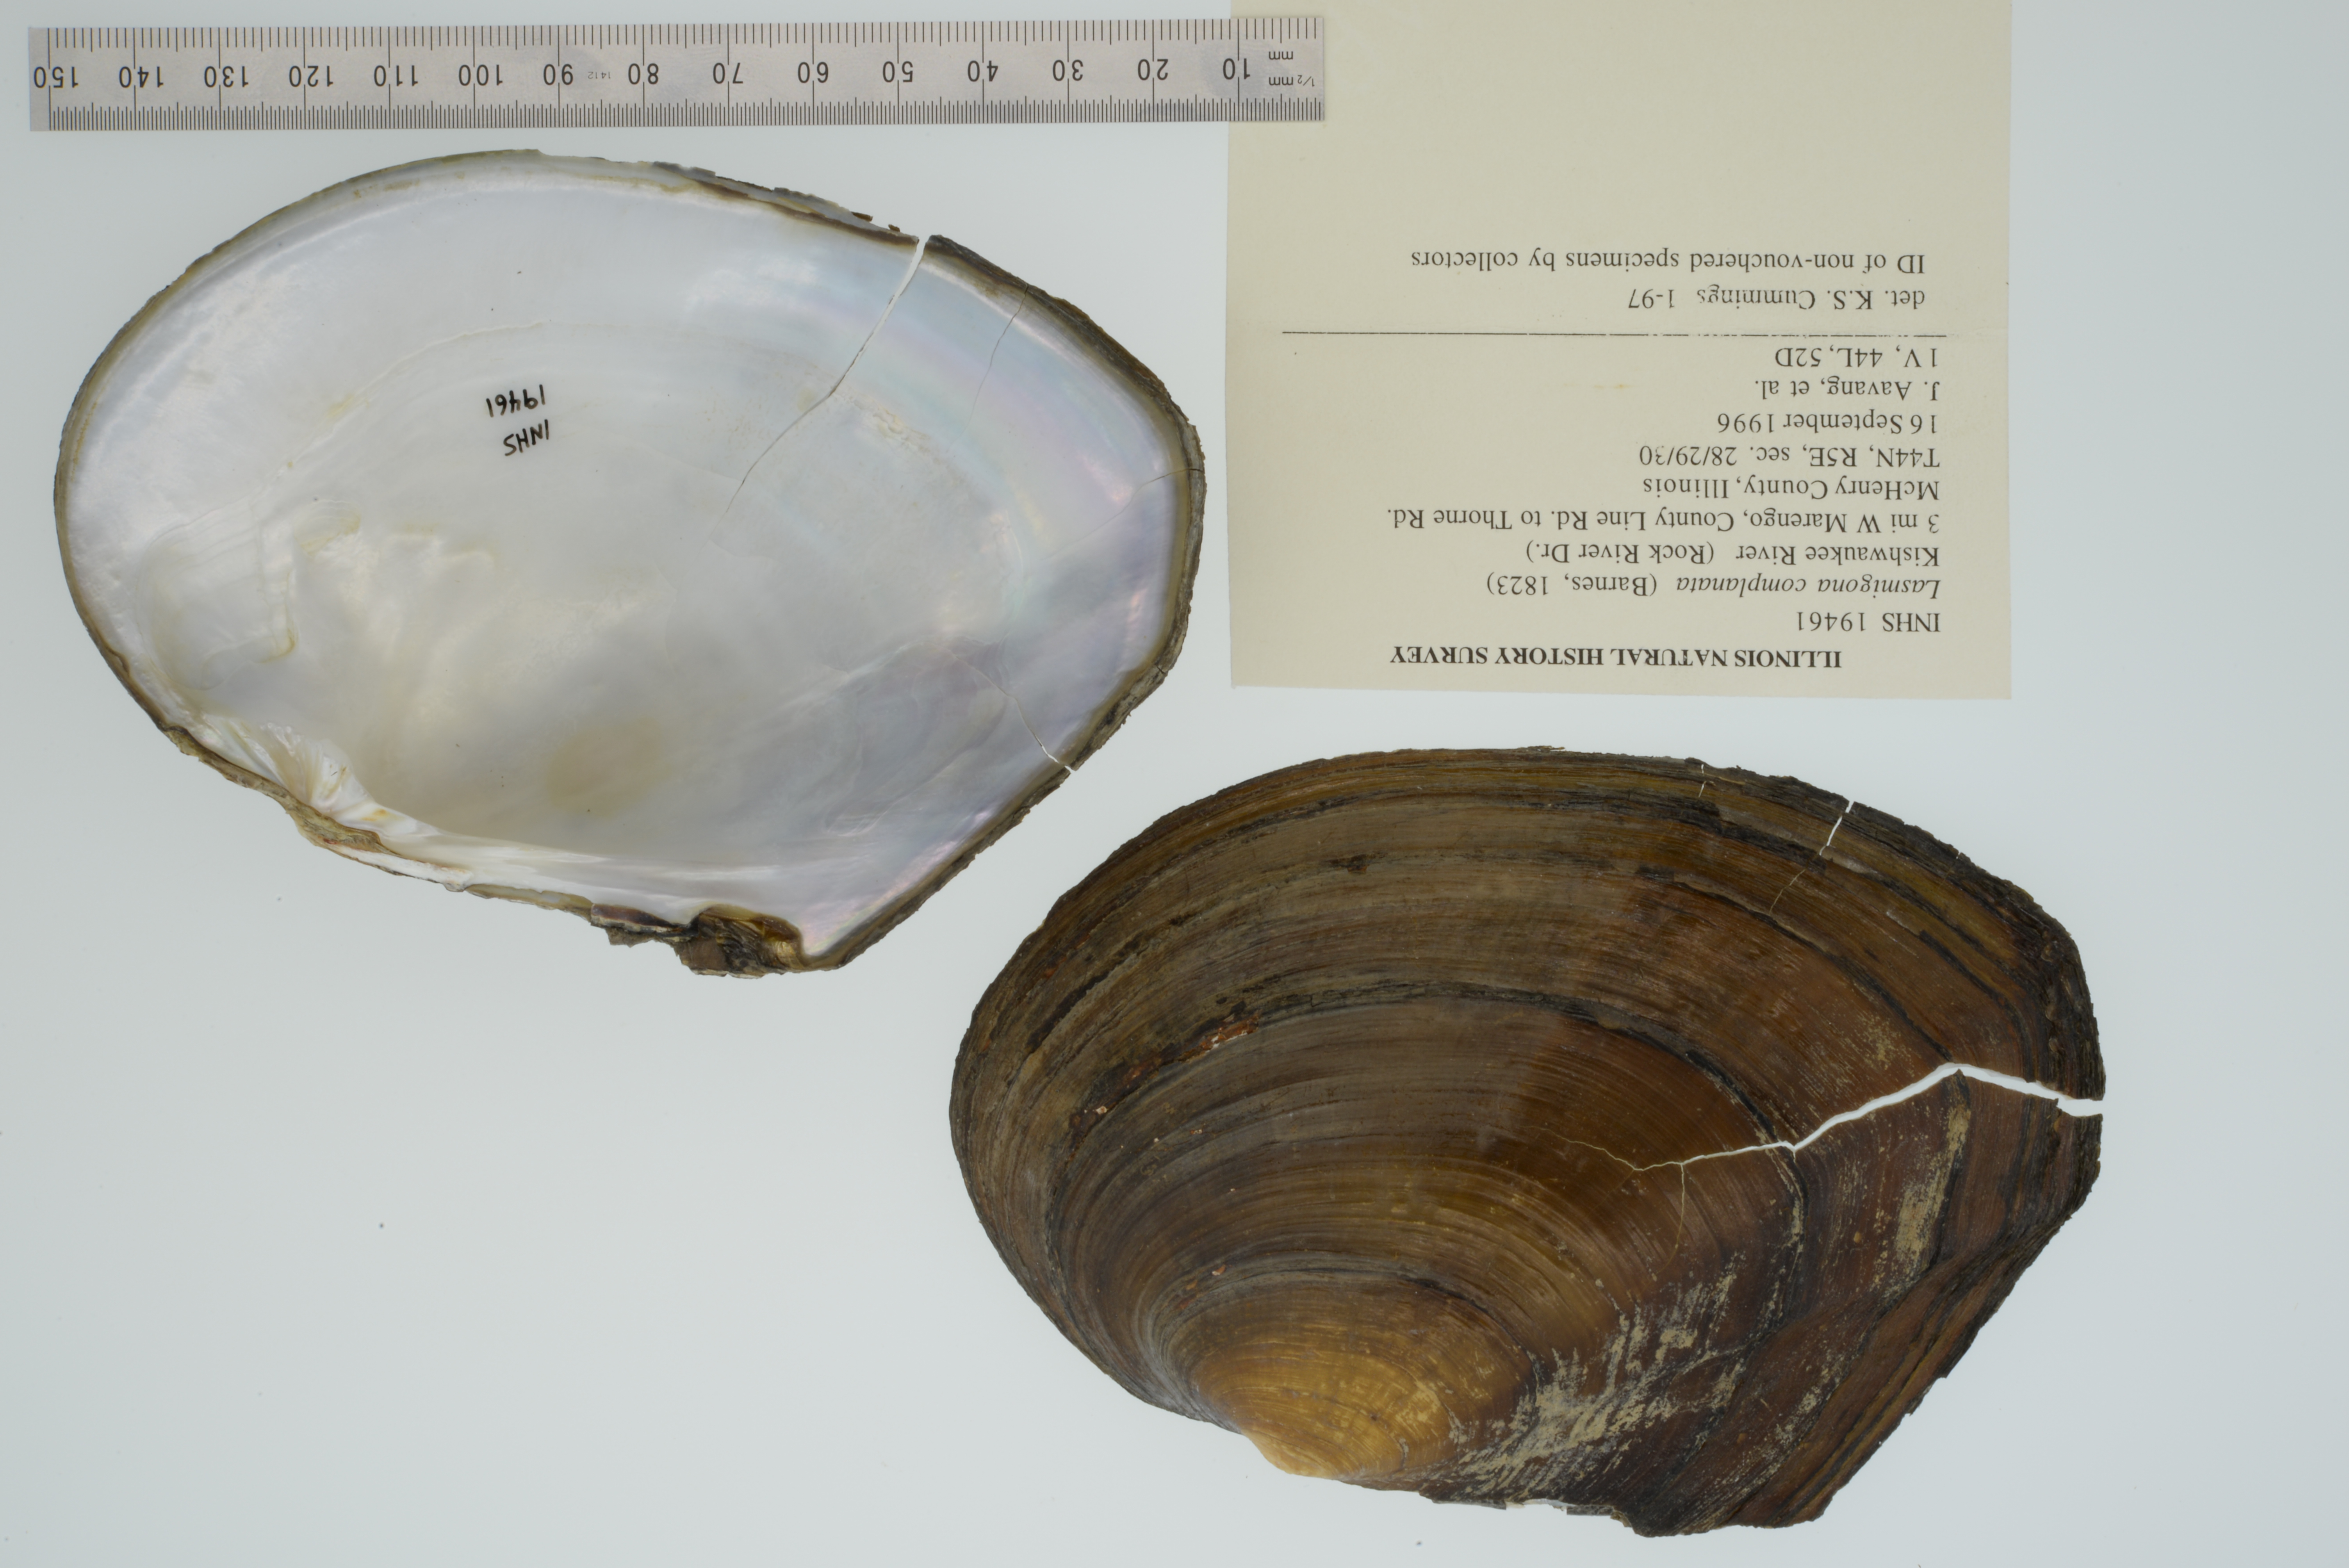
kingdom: Animalia
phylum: Mollusca
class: Bivalvia
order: Unionida
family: Unionidae
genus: Lasmigona
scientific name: Lasmigona complanata
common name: White heelsplitter
